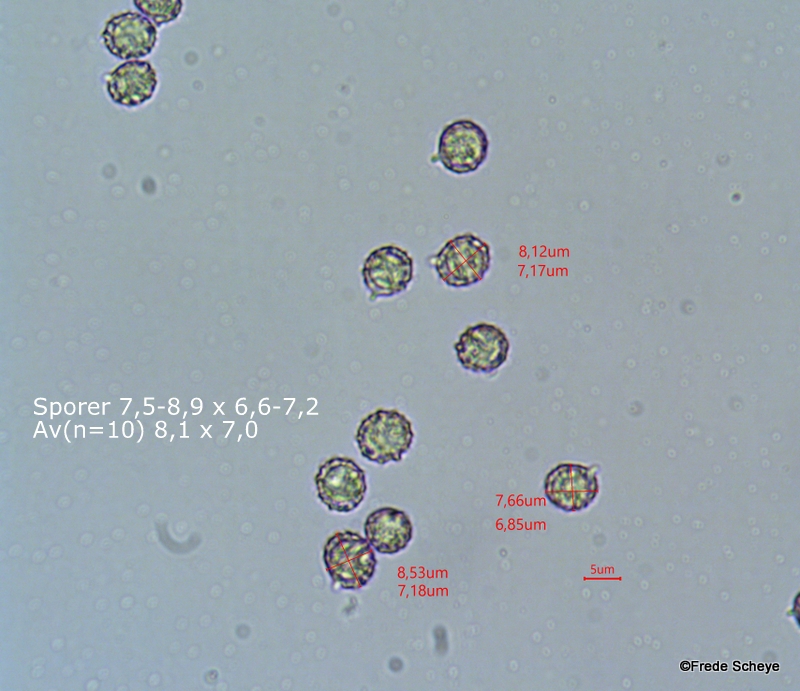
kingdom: Fungi
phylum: Basidiomycota
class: Agaricomycetes
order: Russulales
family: Russulaceae
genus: Russula
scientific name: Russula violeipes
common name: ferskengul skørhat
